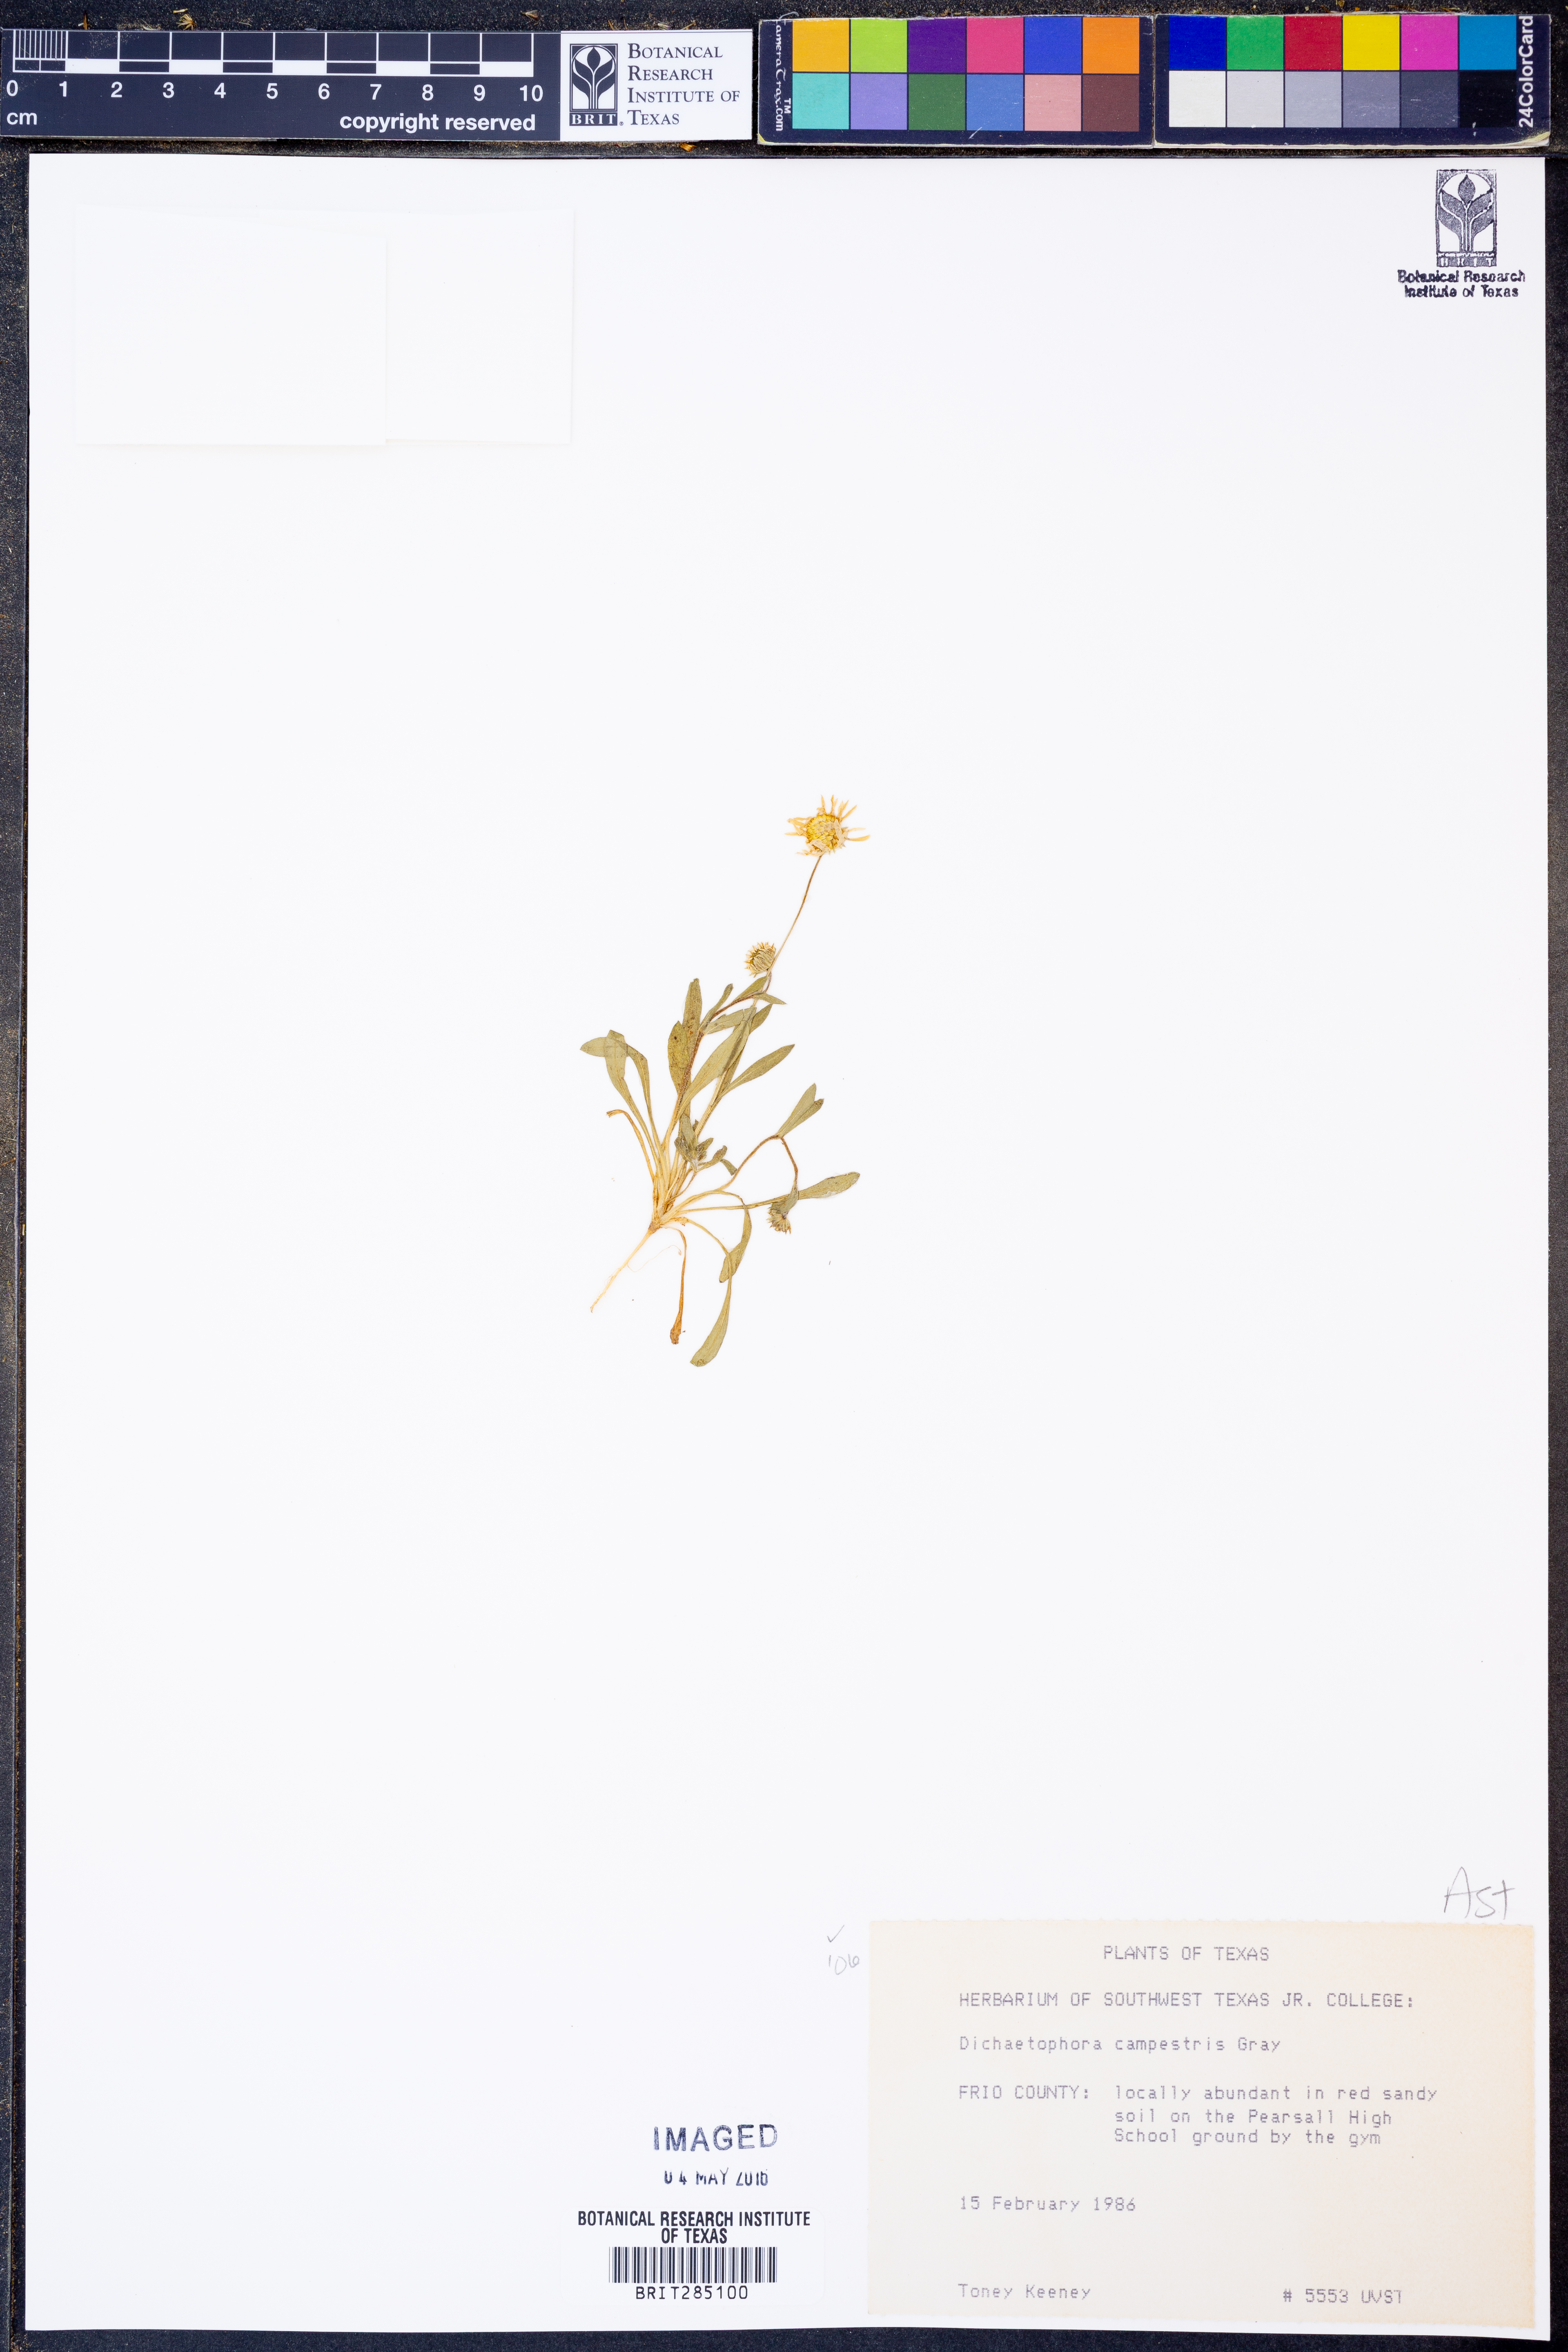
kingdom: Plantae
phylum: Tracheophyta
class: Magnoliopsida
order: Asterales
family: Asteraceae
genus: Dichaetophora
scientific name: Dichaetophora campestris
